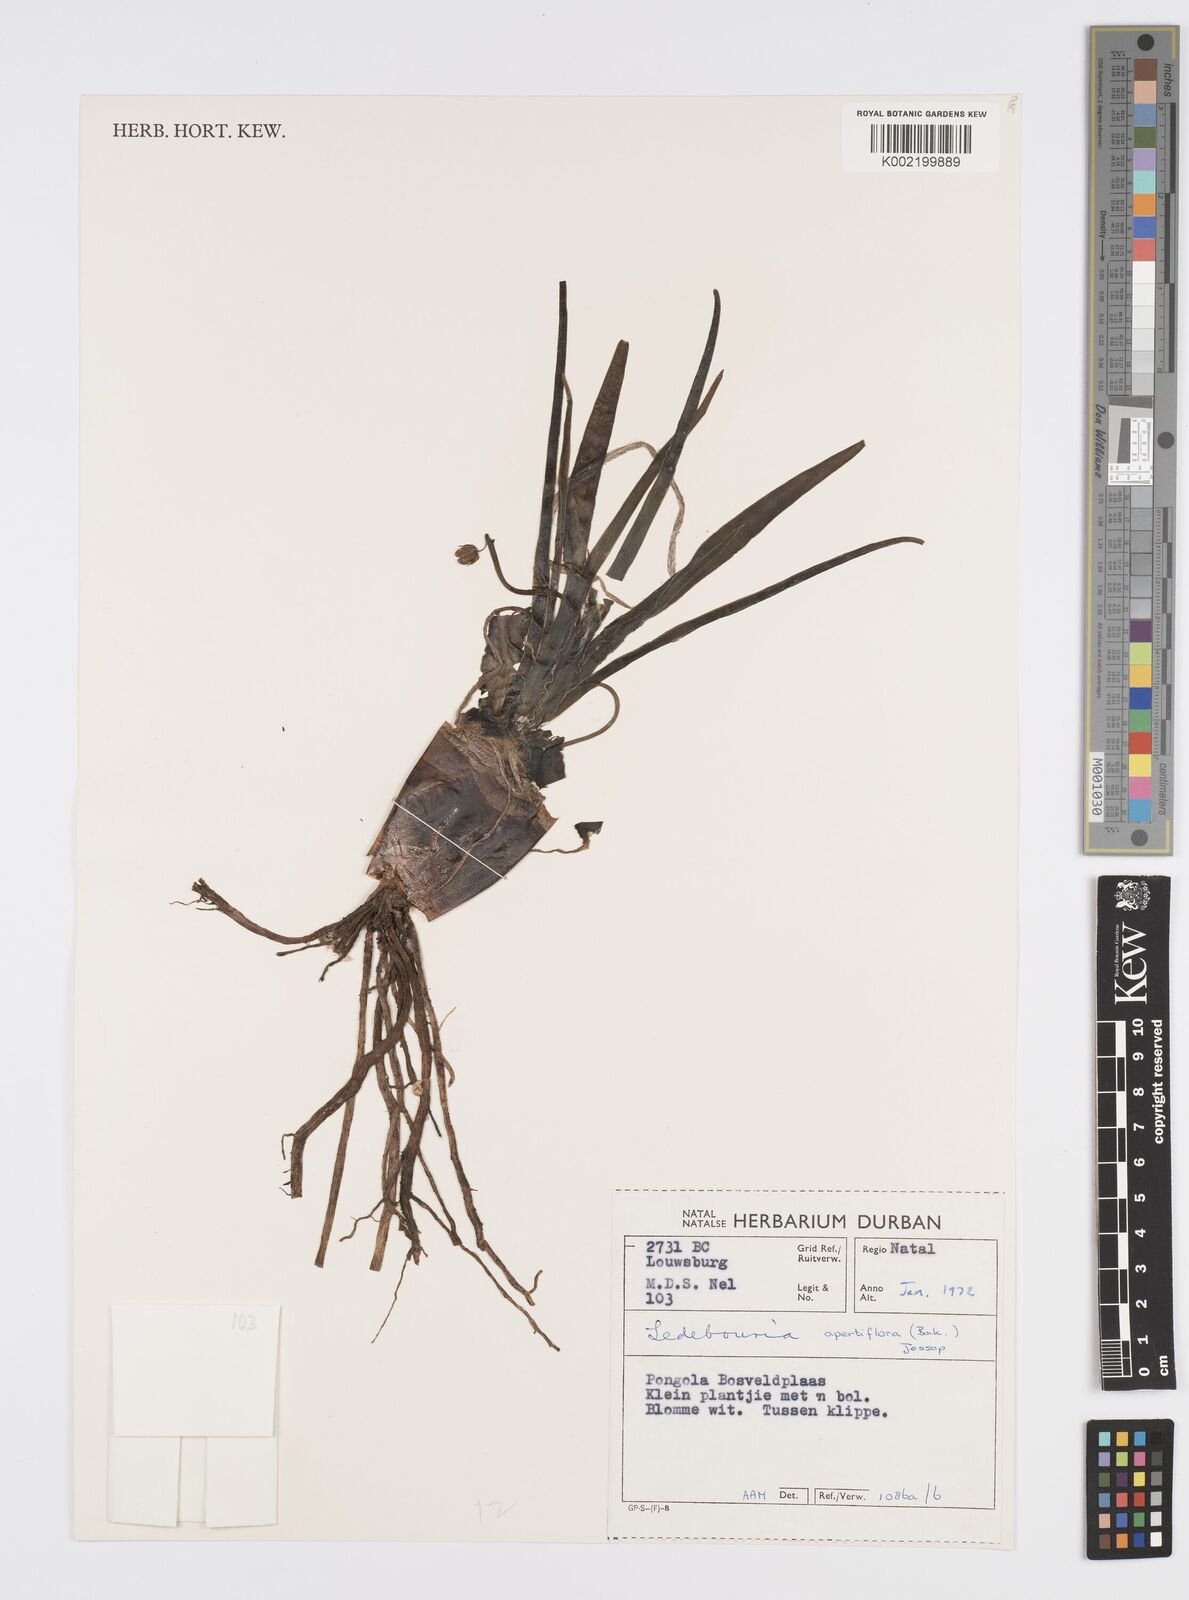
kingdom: Plantae
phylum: Tracheophyta
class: Liliopsida
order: Asparagales
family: Asparagaceae
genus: Ledebouria
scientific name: Ledebouria apertiflora
